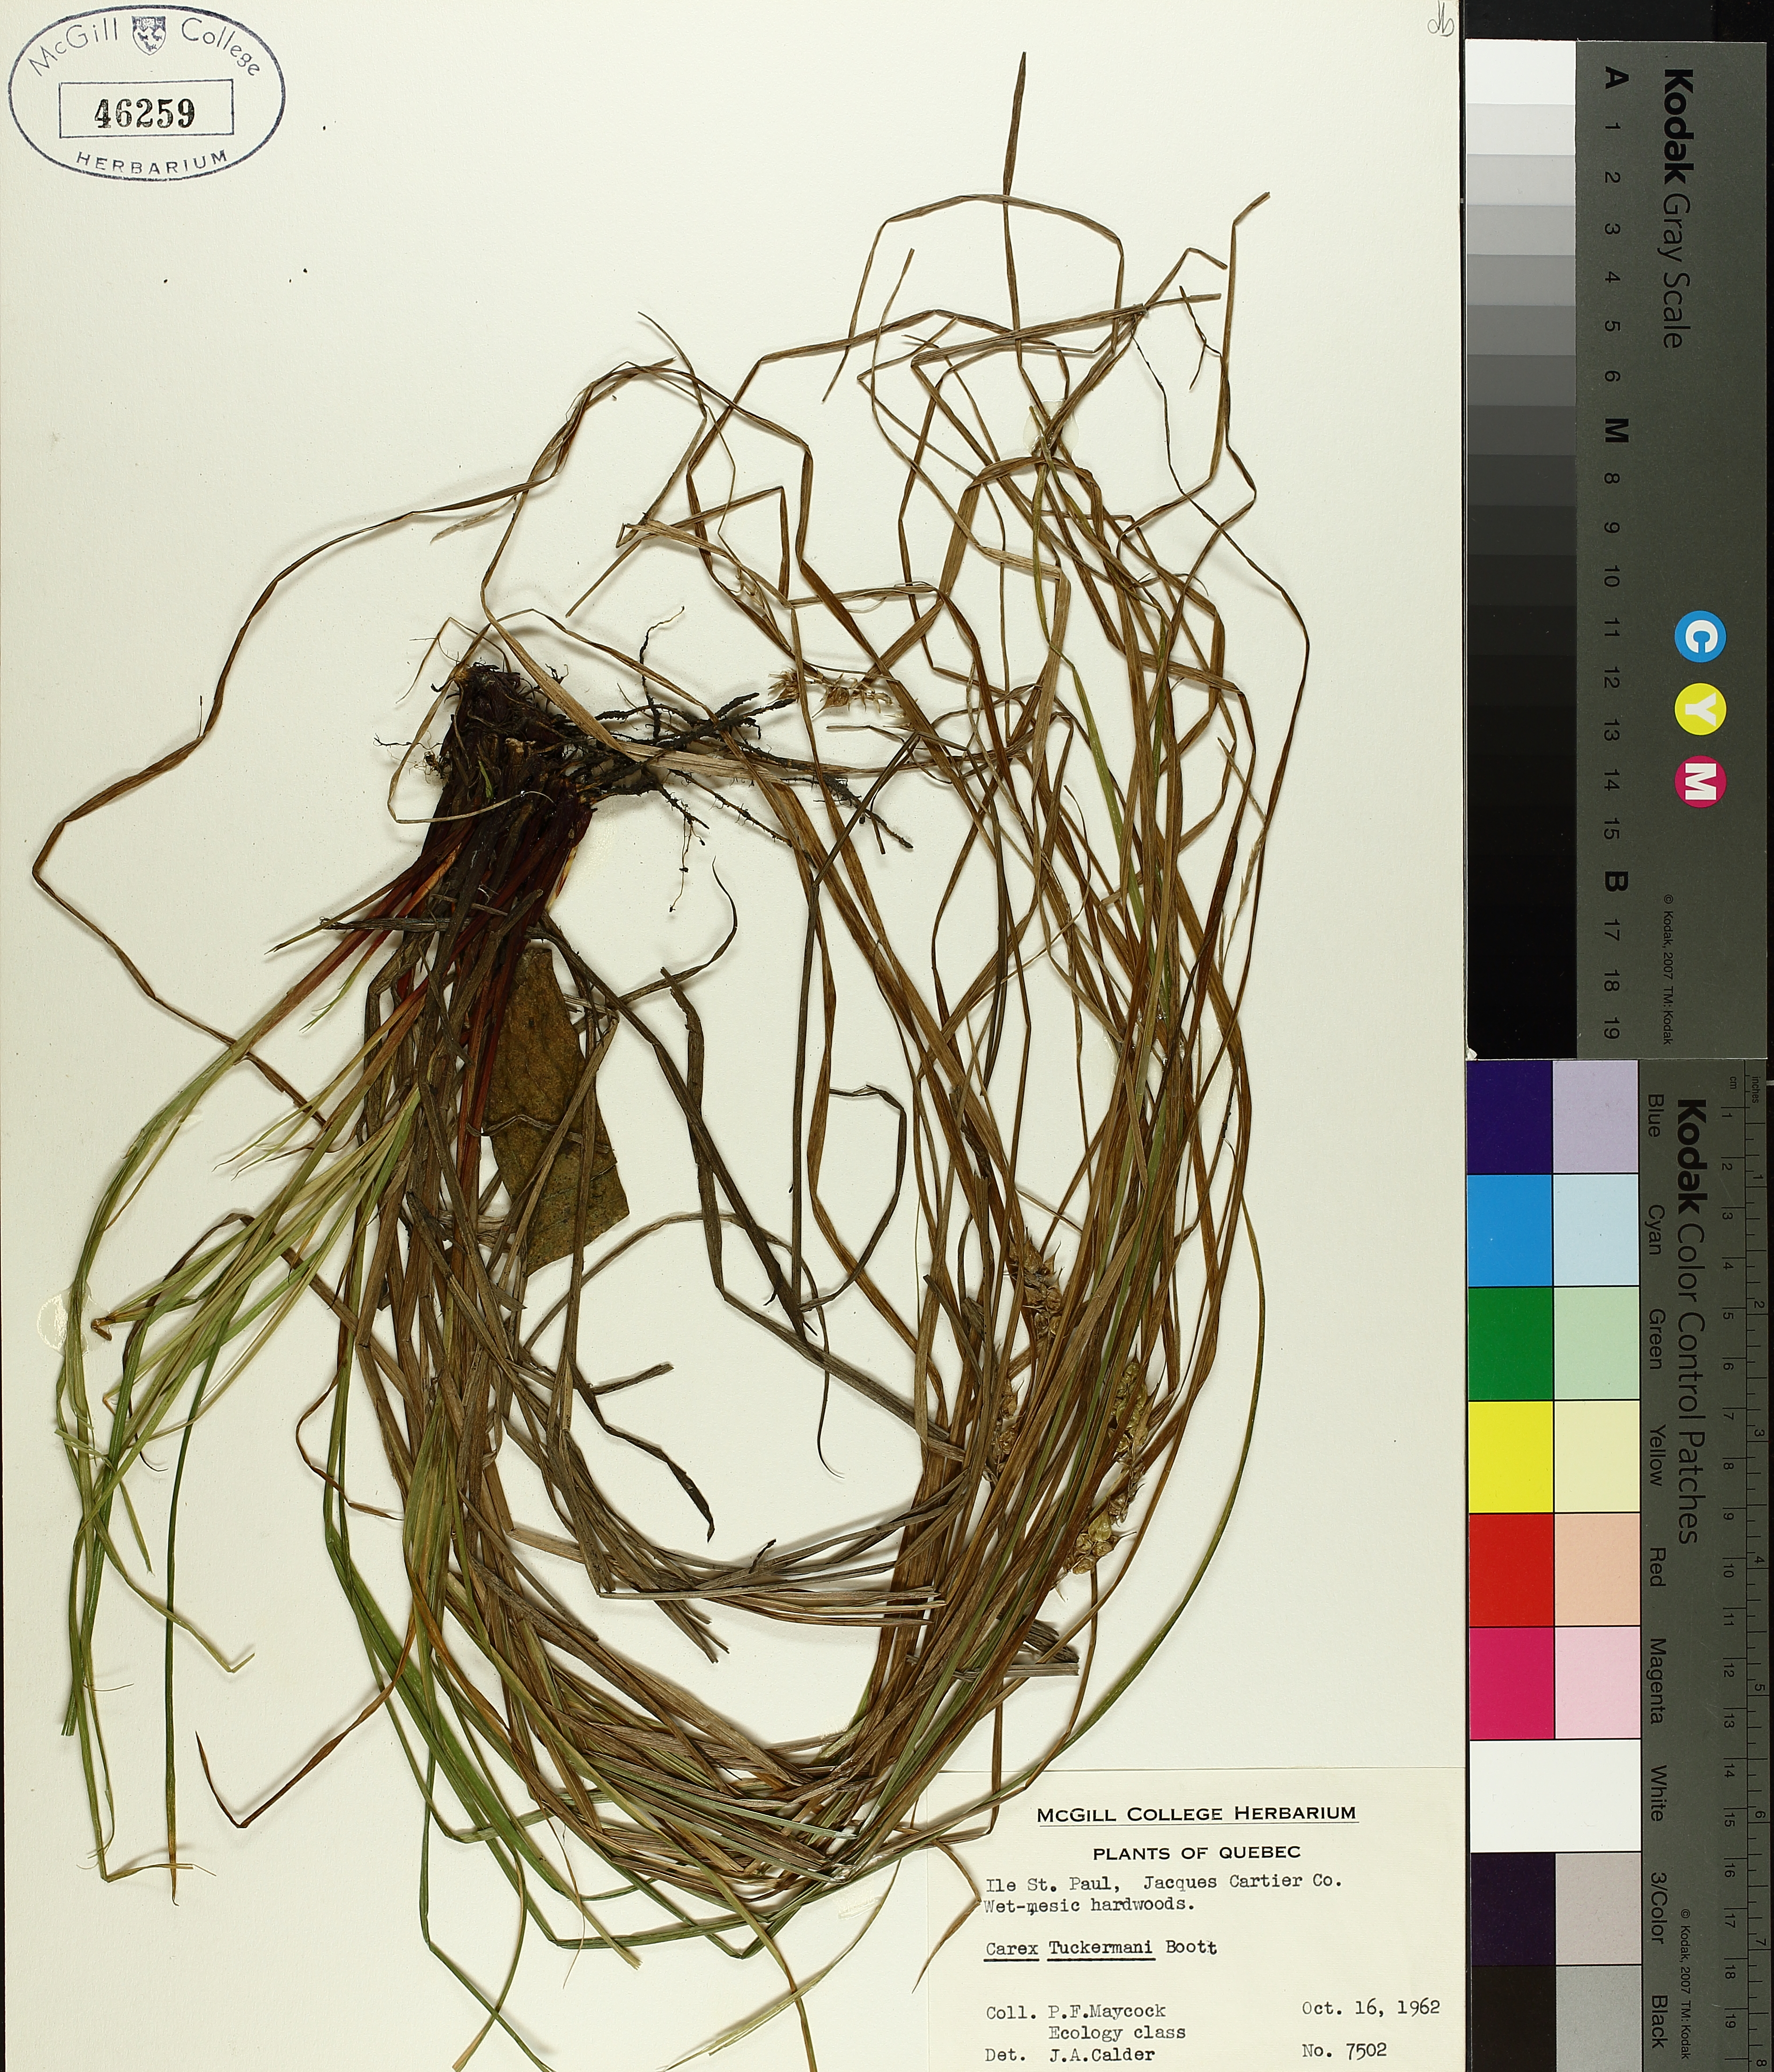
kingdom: Plantae
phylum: Tracheophyta
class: Liliopsida
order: Poales
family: Cyperaceae
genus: Carex
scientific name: Carex tuckermanii
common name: Tuckerman's sedge
